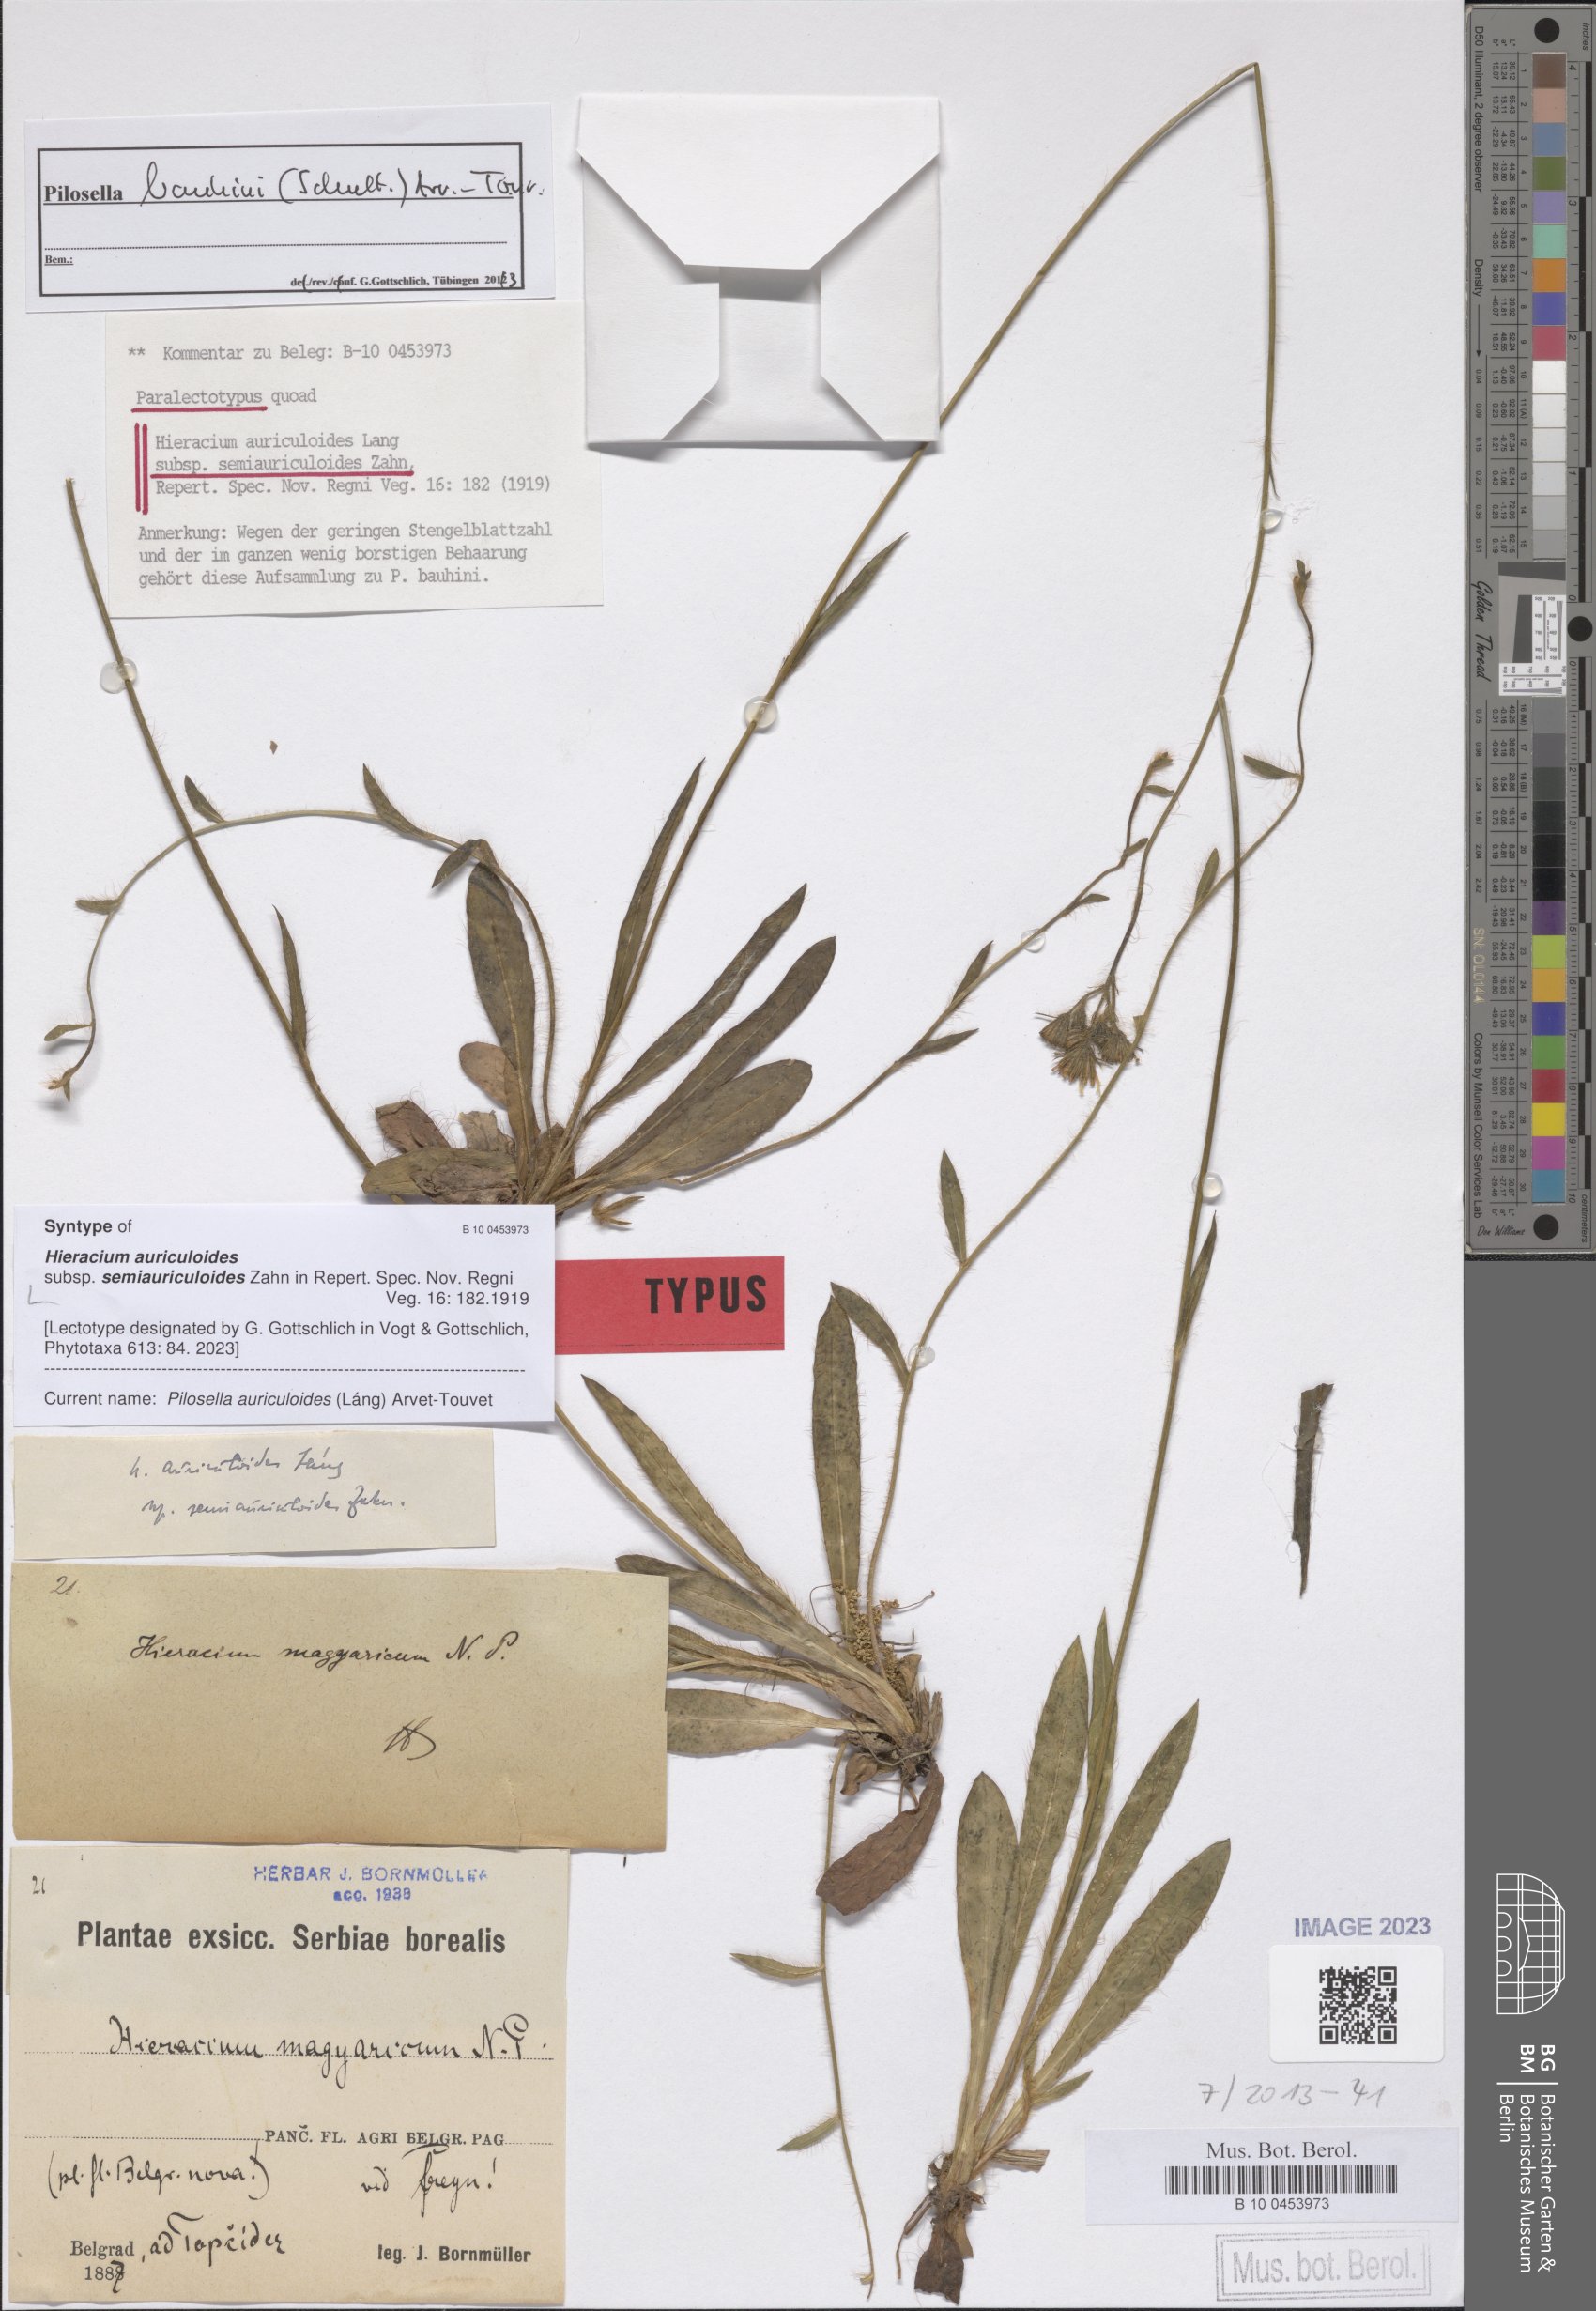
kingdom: Plantae
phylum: Tracheophyta
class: Magnoliopsida
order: Asterales
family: Asteraceae
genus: Pilosella
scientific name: Pilosella auriculoides
